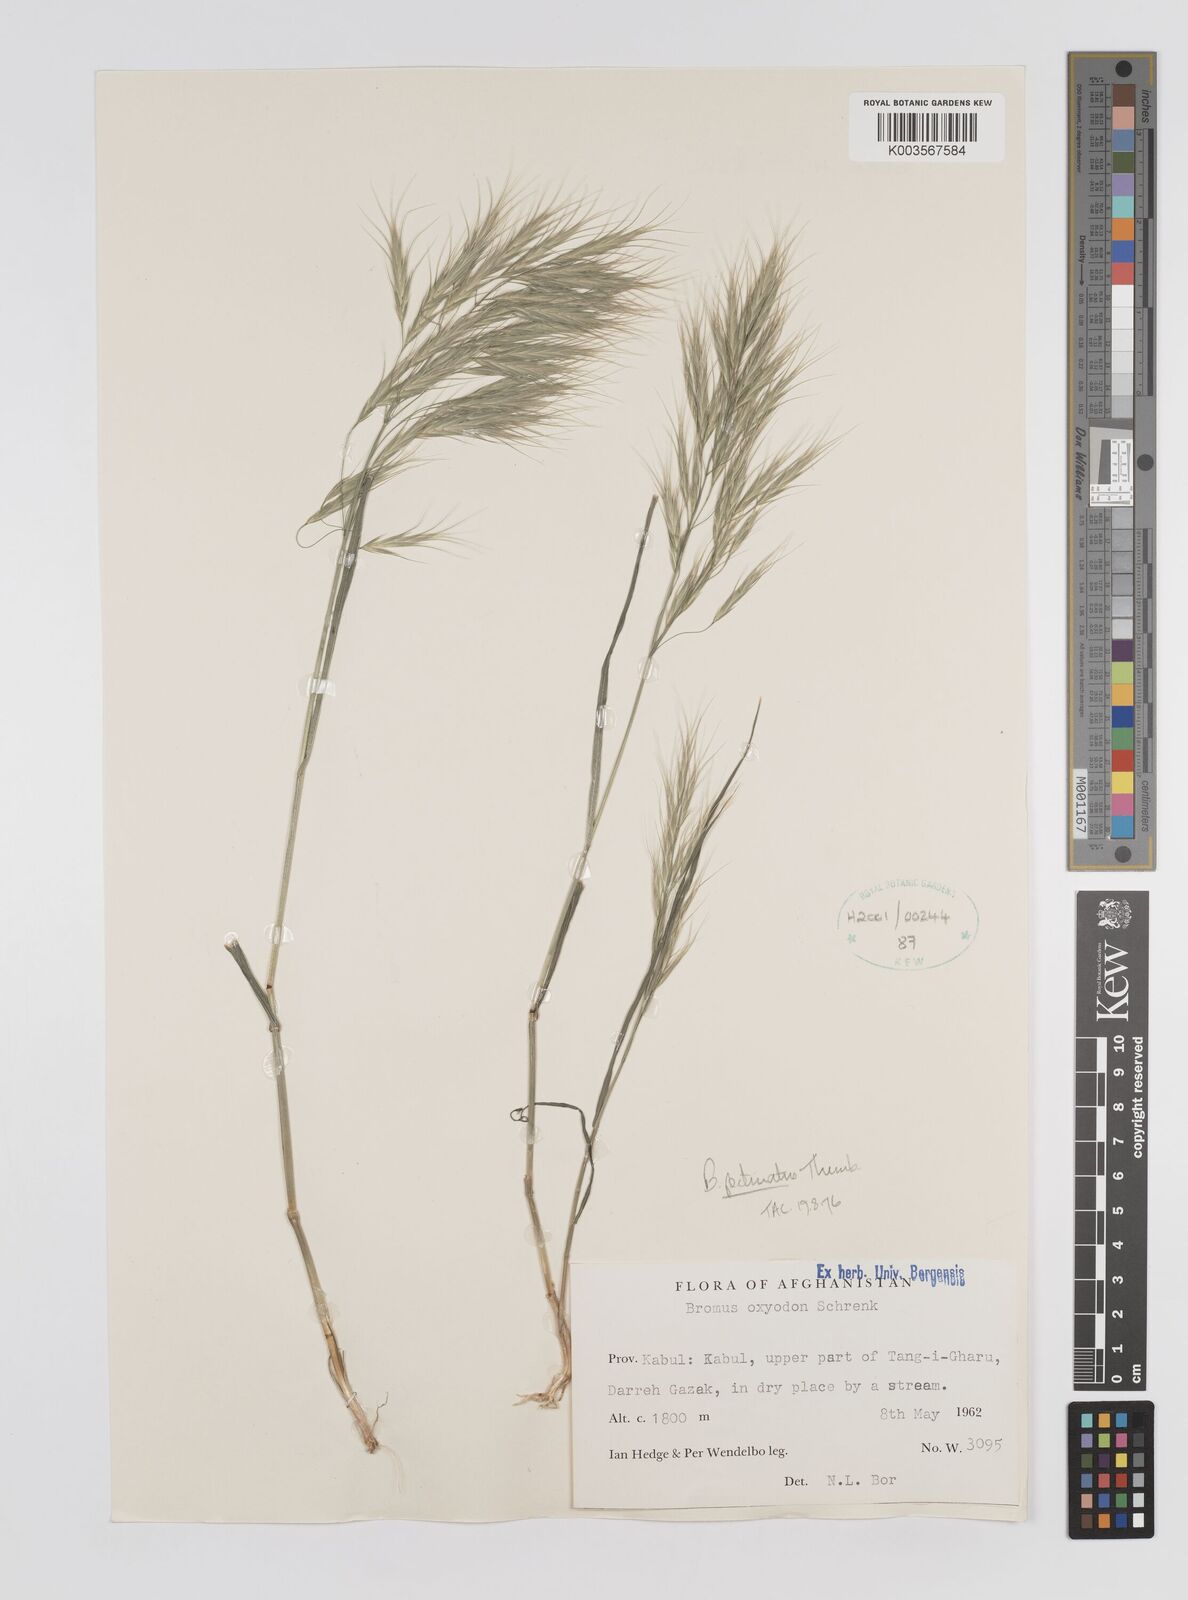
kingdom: Plantae
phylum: Tracheophyta
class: Liliopsida
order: Poales
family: Poaceae
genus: Bromus
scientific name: Bromus pectinatus
